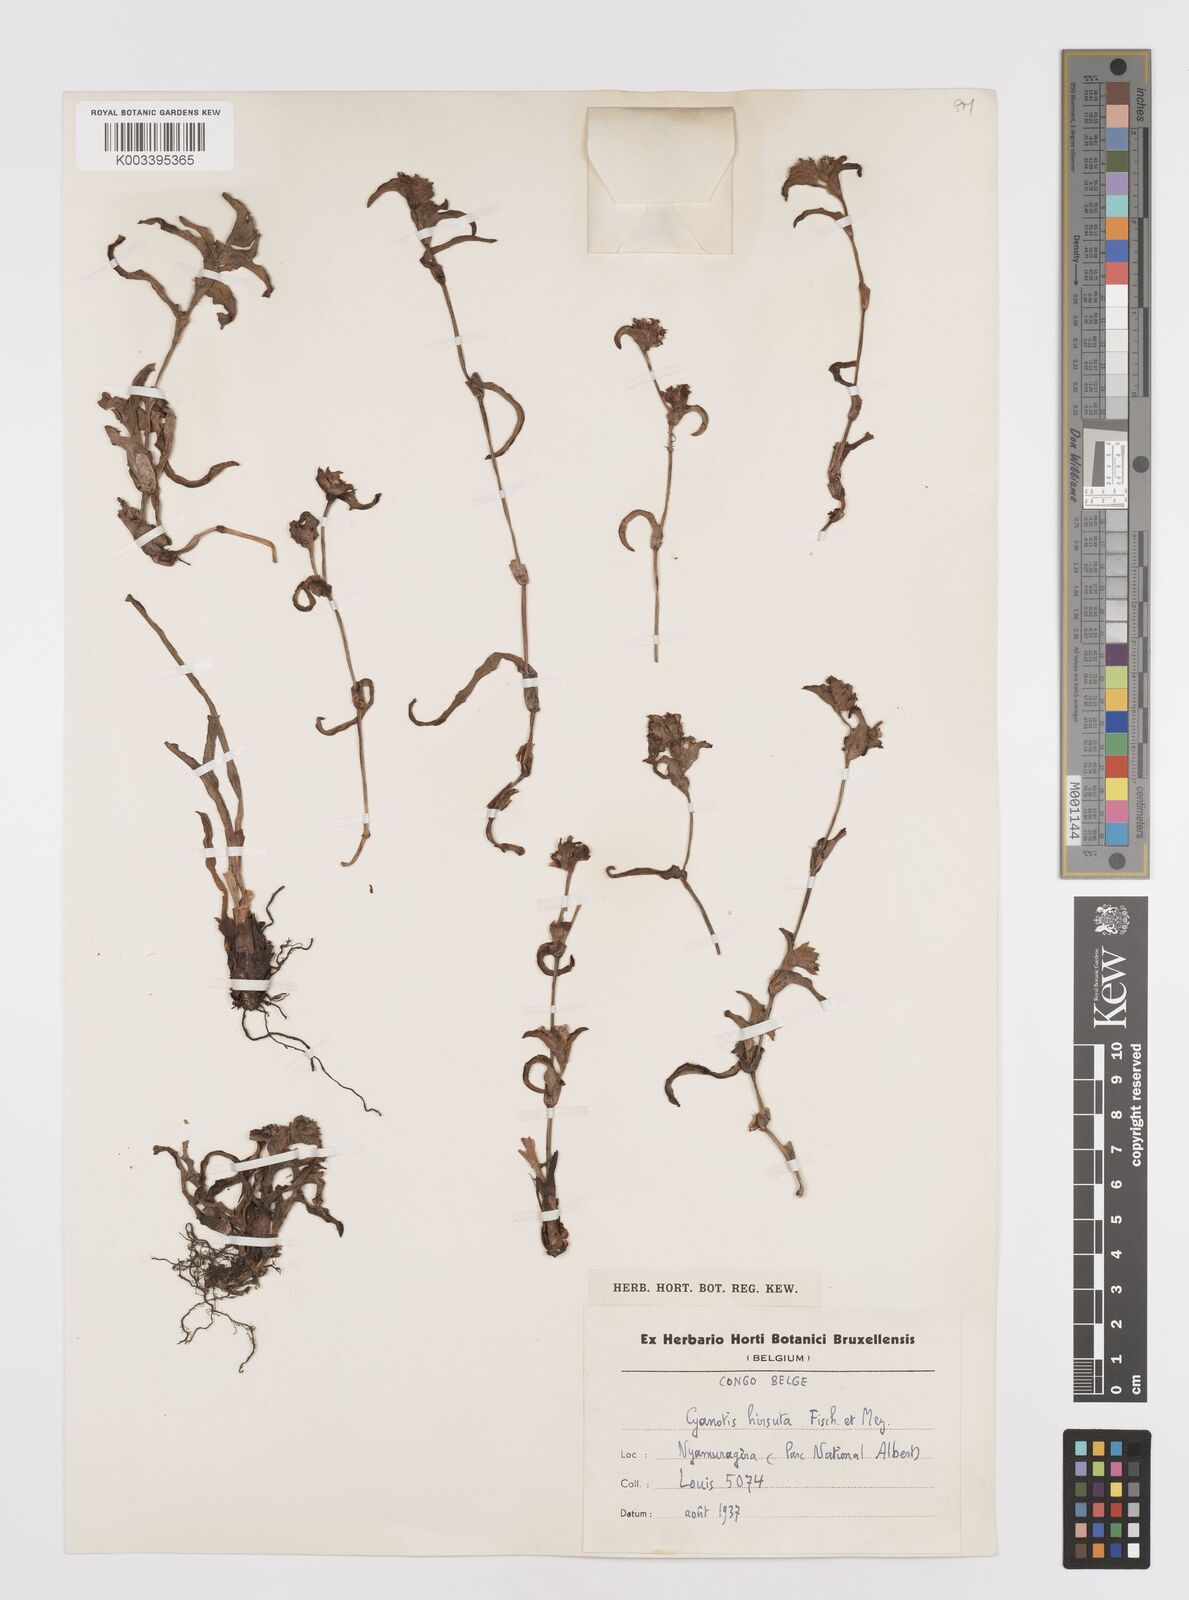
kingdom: Plantae
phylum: Tracheophyta
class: Liliopsida
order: Commelinales
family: Commelinaceae
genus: Cyanotis
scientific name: Cyanotis vaga
